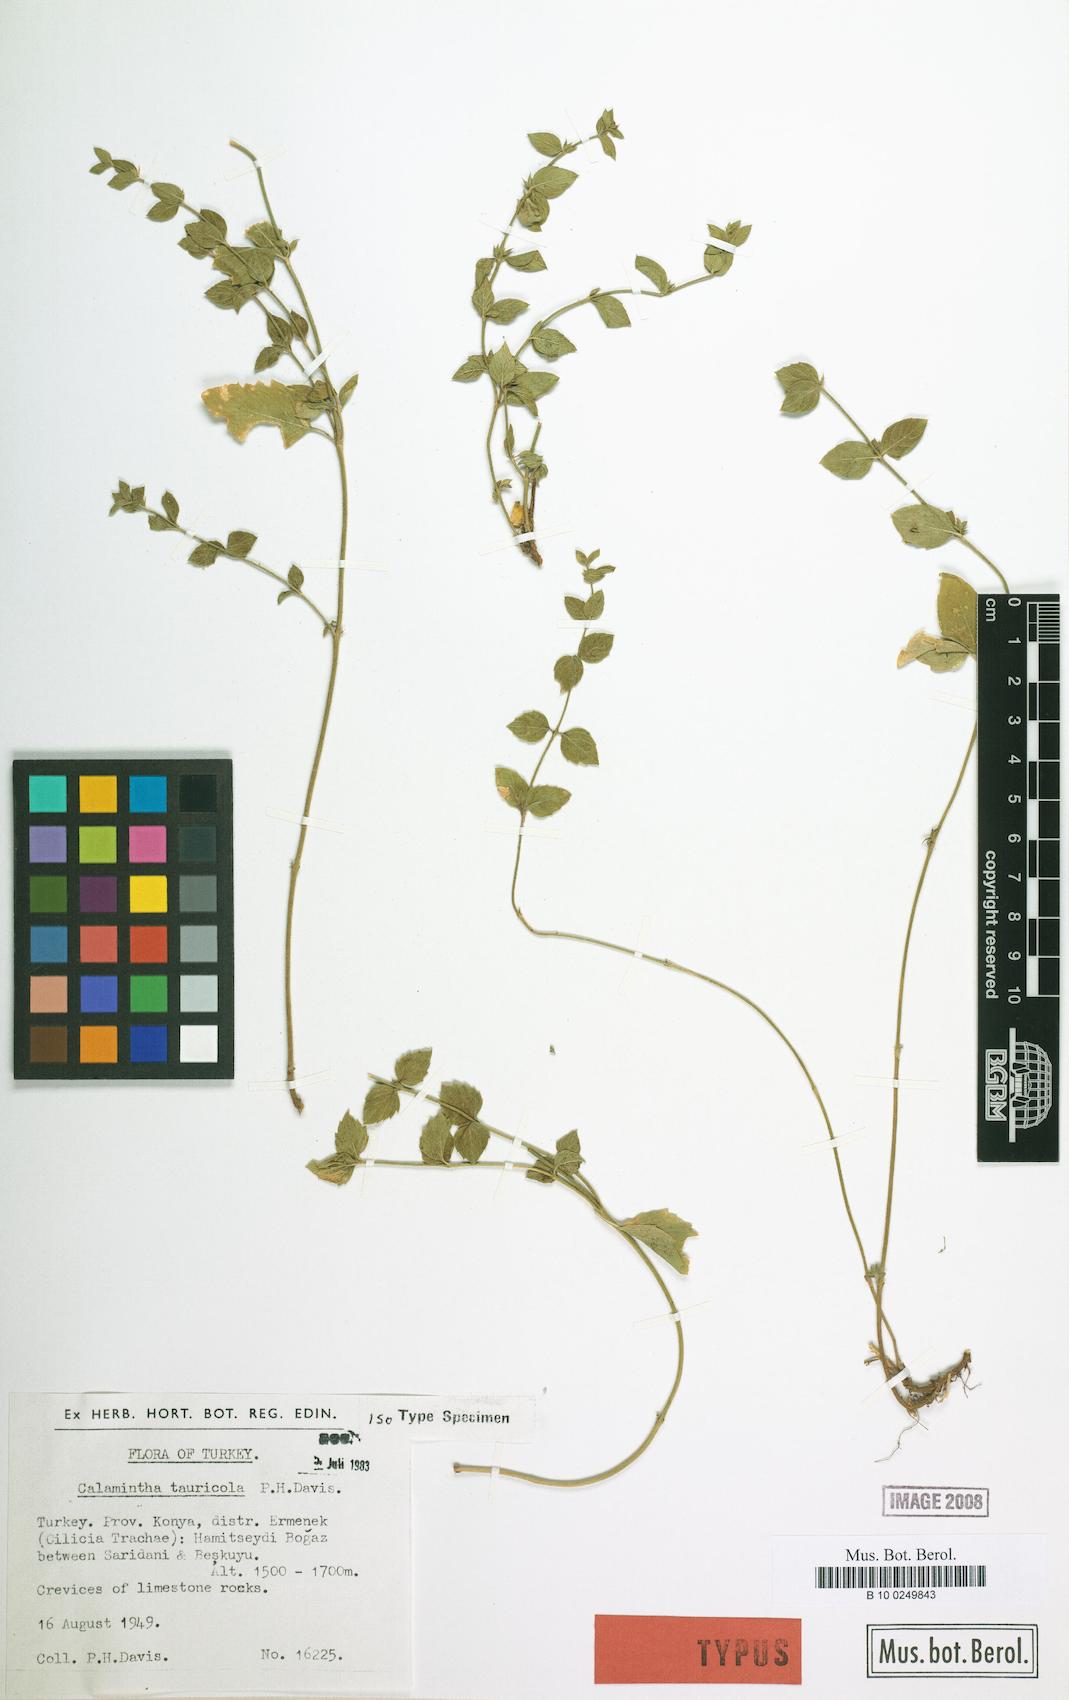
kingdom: Plantae
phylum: Tracheophyta
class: Magnoliopsida
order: Lamiales
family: Lamiaceae
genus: Clinopodium
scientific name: Clinopodium tauricola
